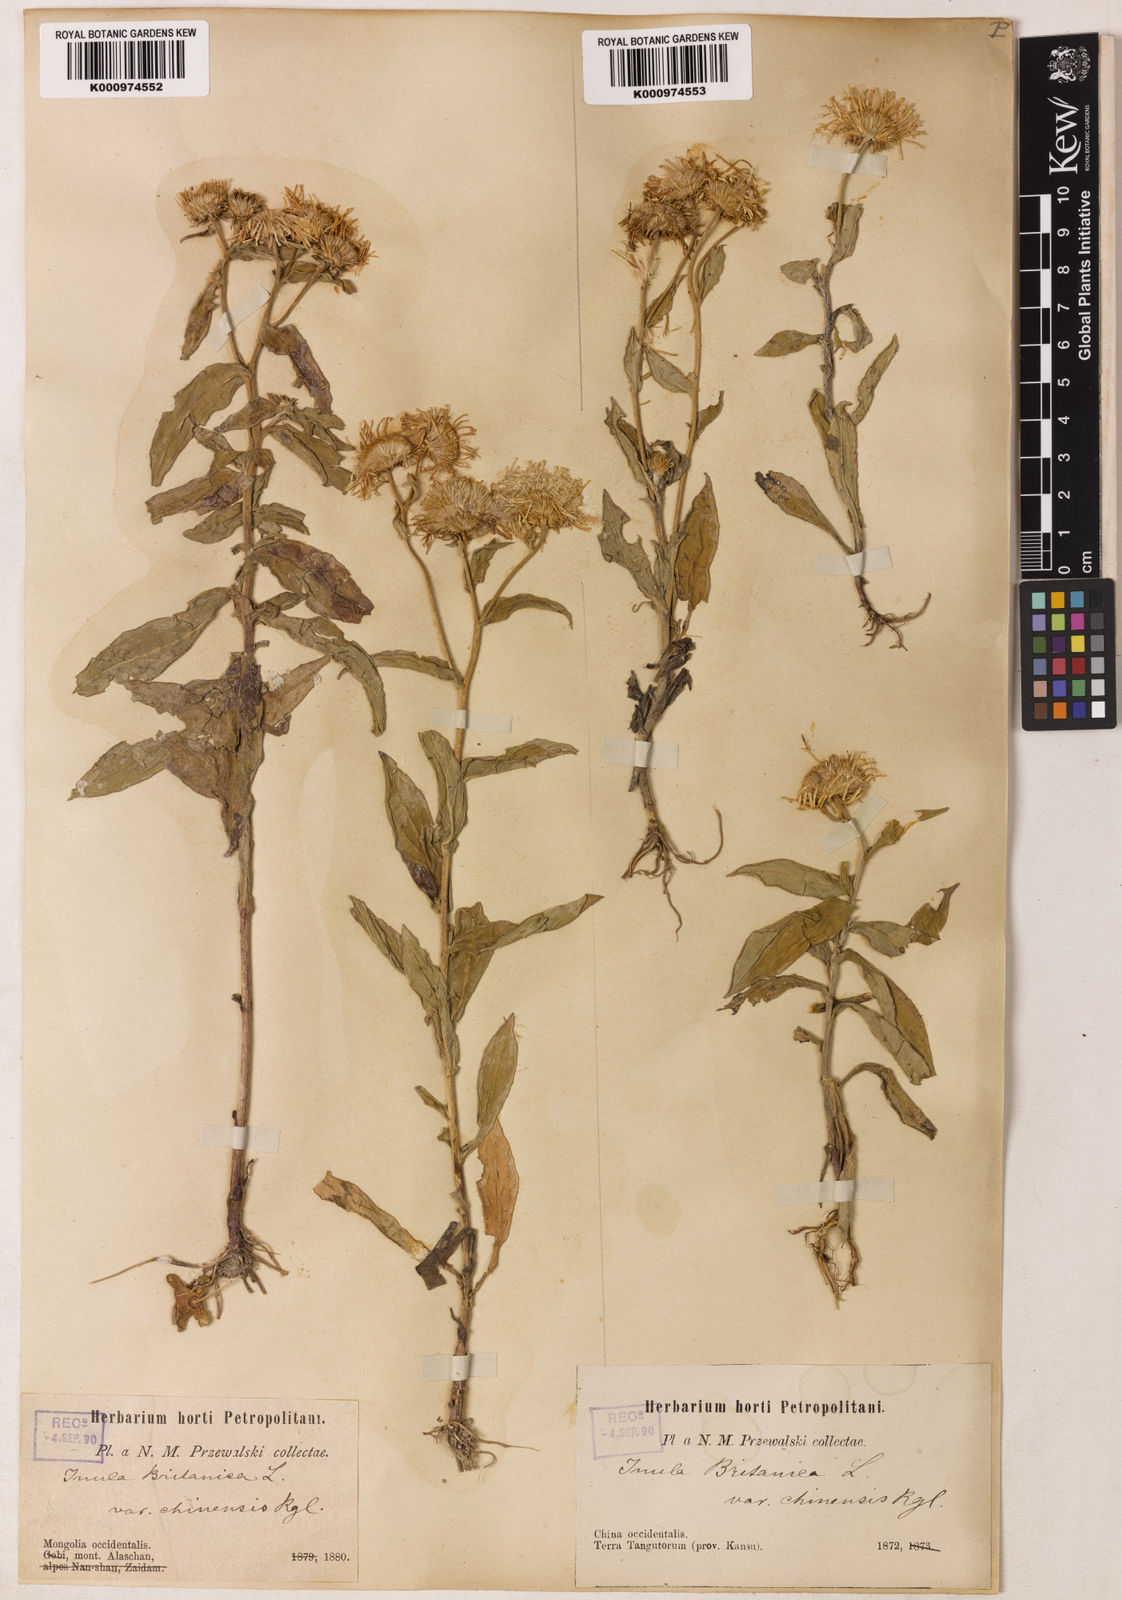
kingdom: Plantae
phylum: Tracheophyta
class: Magnoliopsida
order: Asterales
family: Asteraceae
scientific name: Asteraceae
